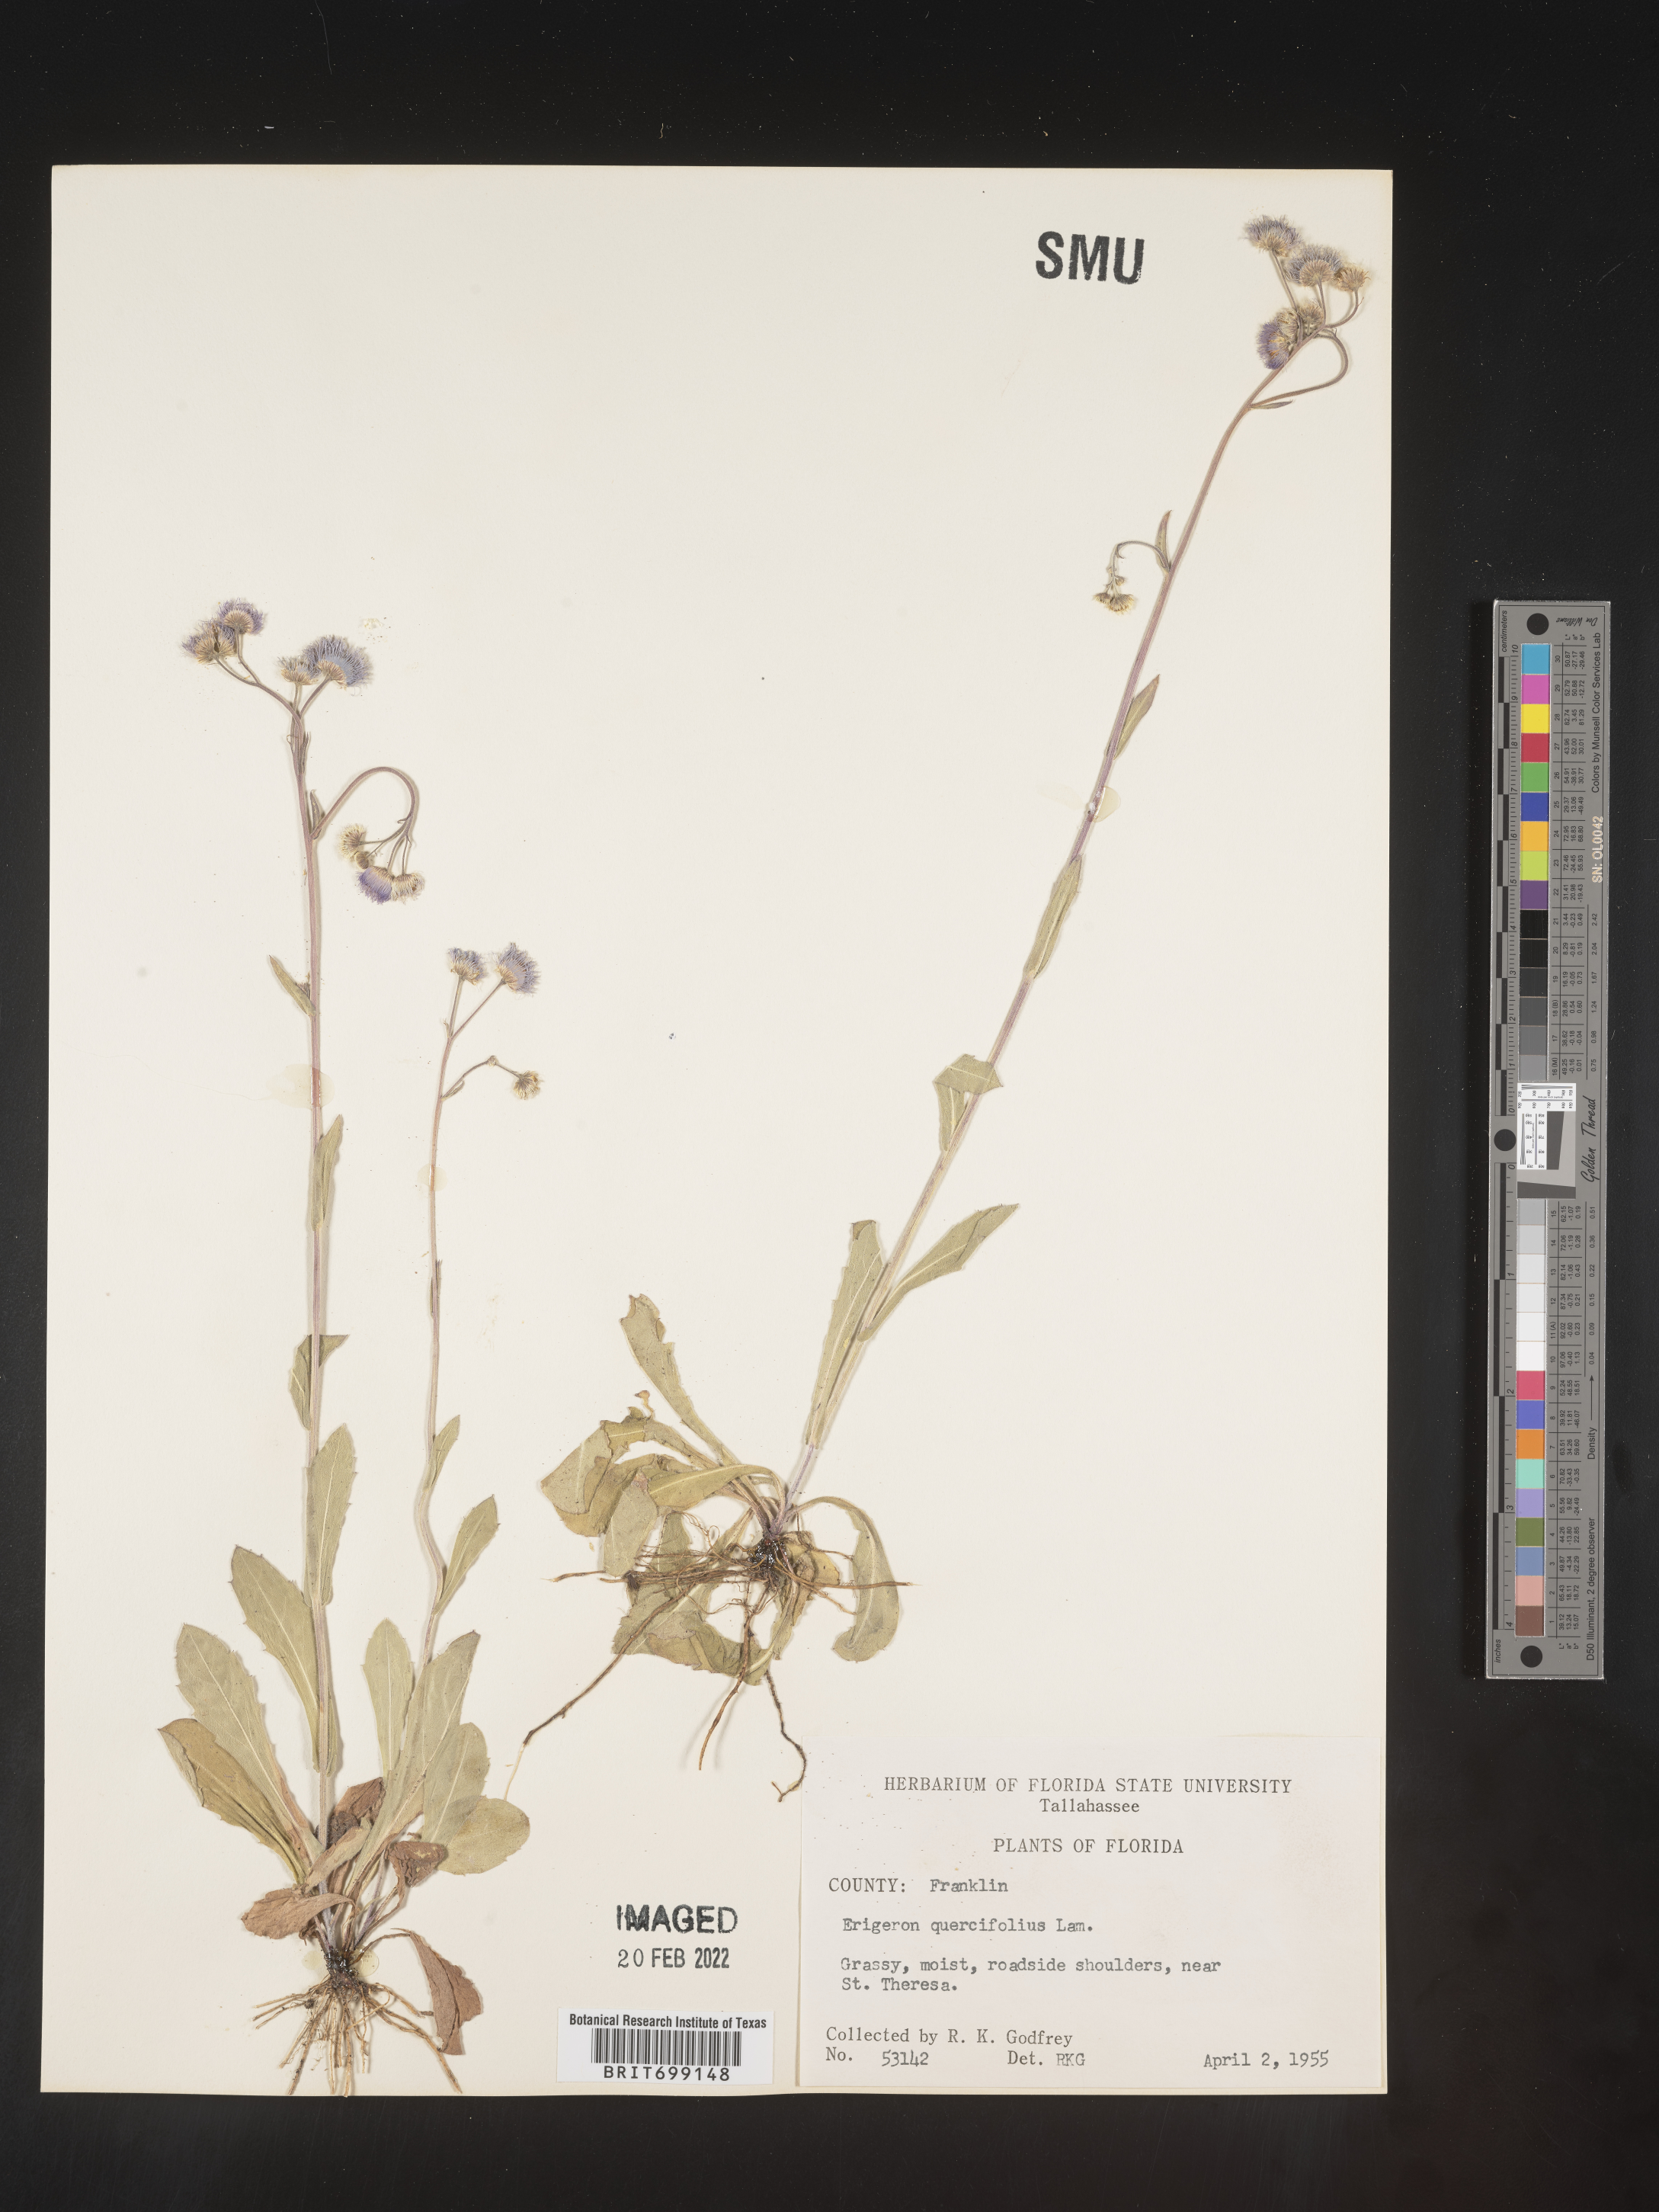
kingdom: Plantae
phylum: Tracheophyta
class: Magnoliopsida
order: Asterales
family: Asteraceae
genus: Erigeron
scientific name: Erigeron quercifolius
